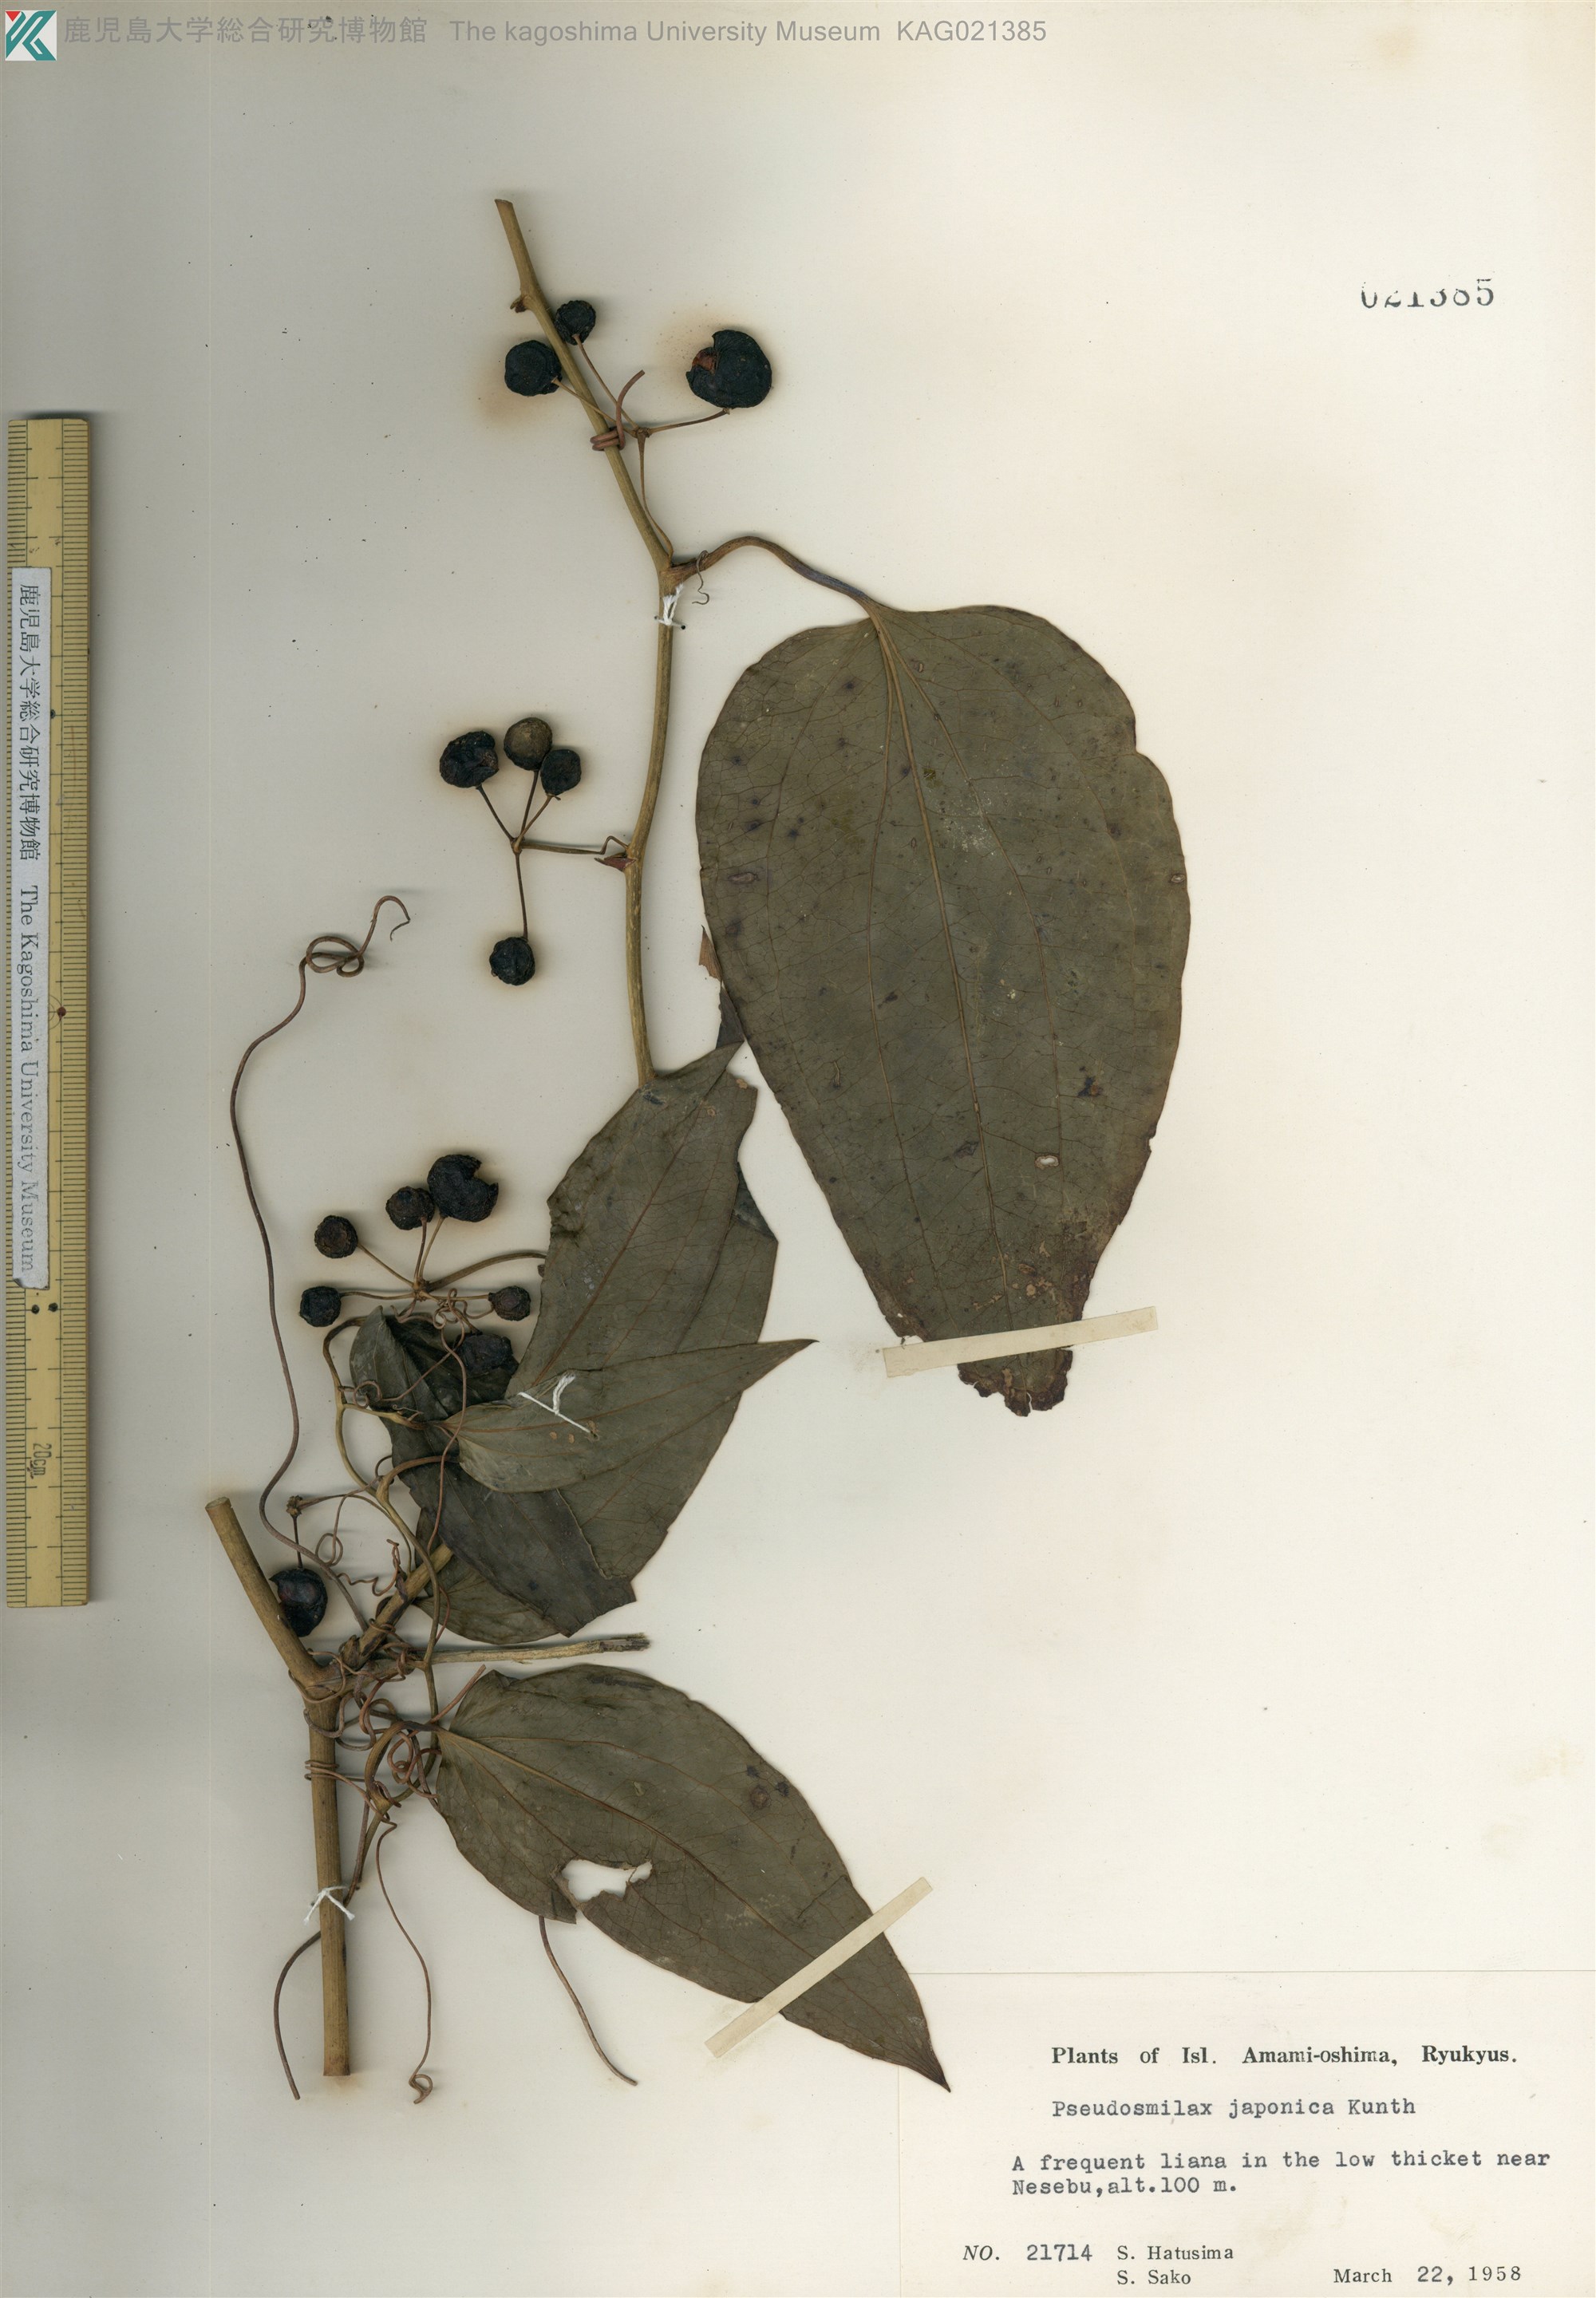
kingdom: Plantae
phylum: Tracheophyta
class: Liliopsida
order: Liliales
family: Smilacaceae
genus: Smilax
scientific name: Smilax insularis
